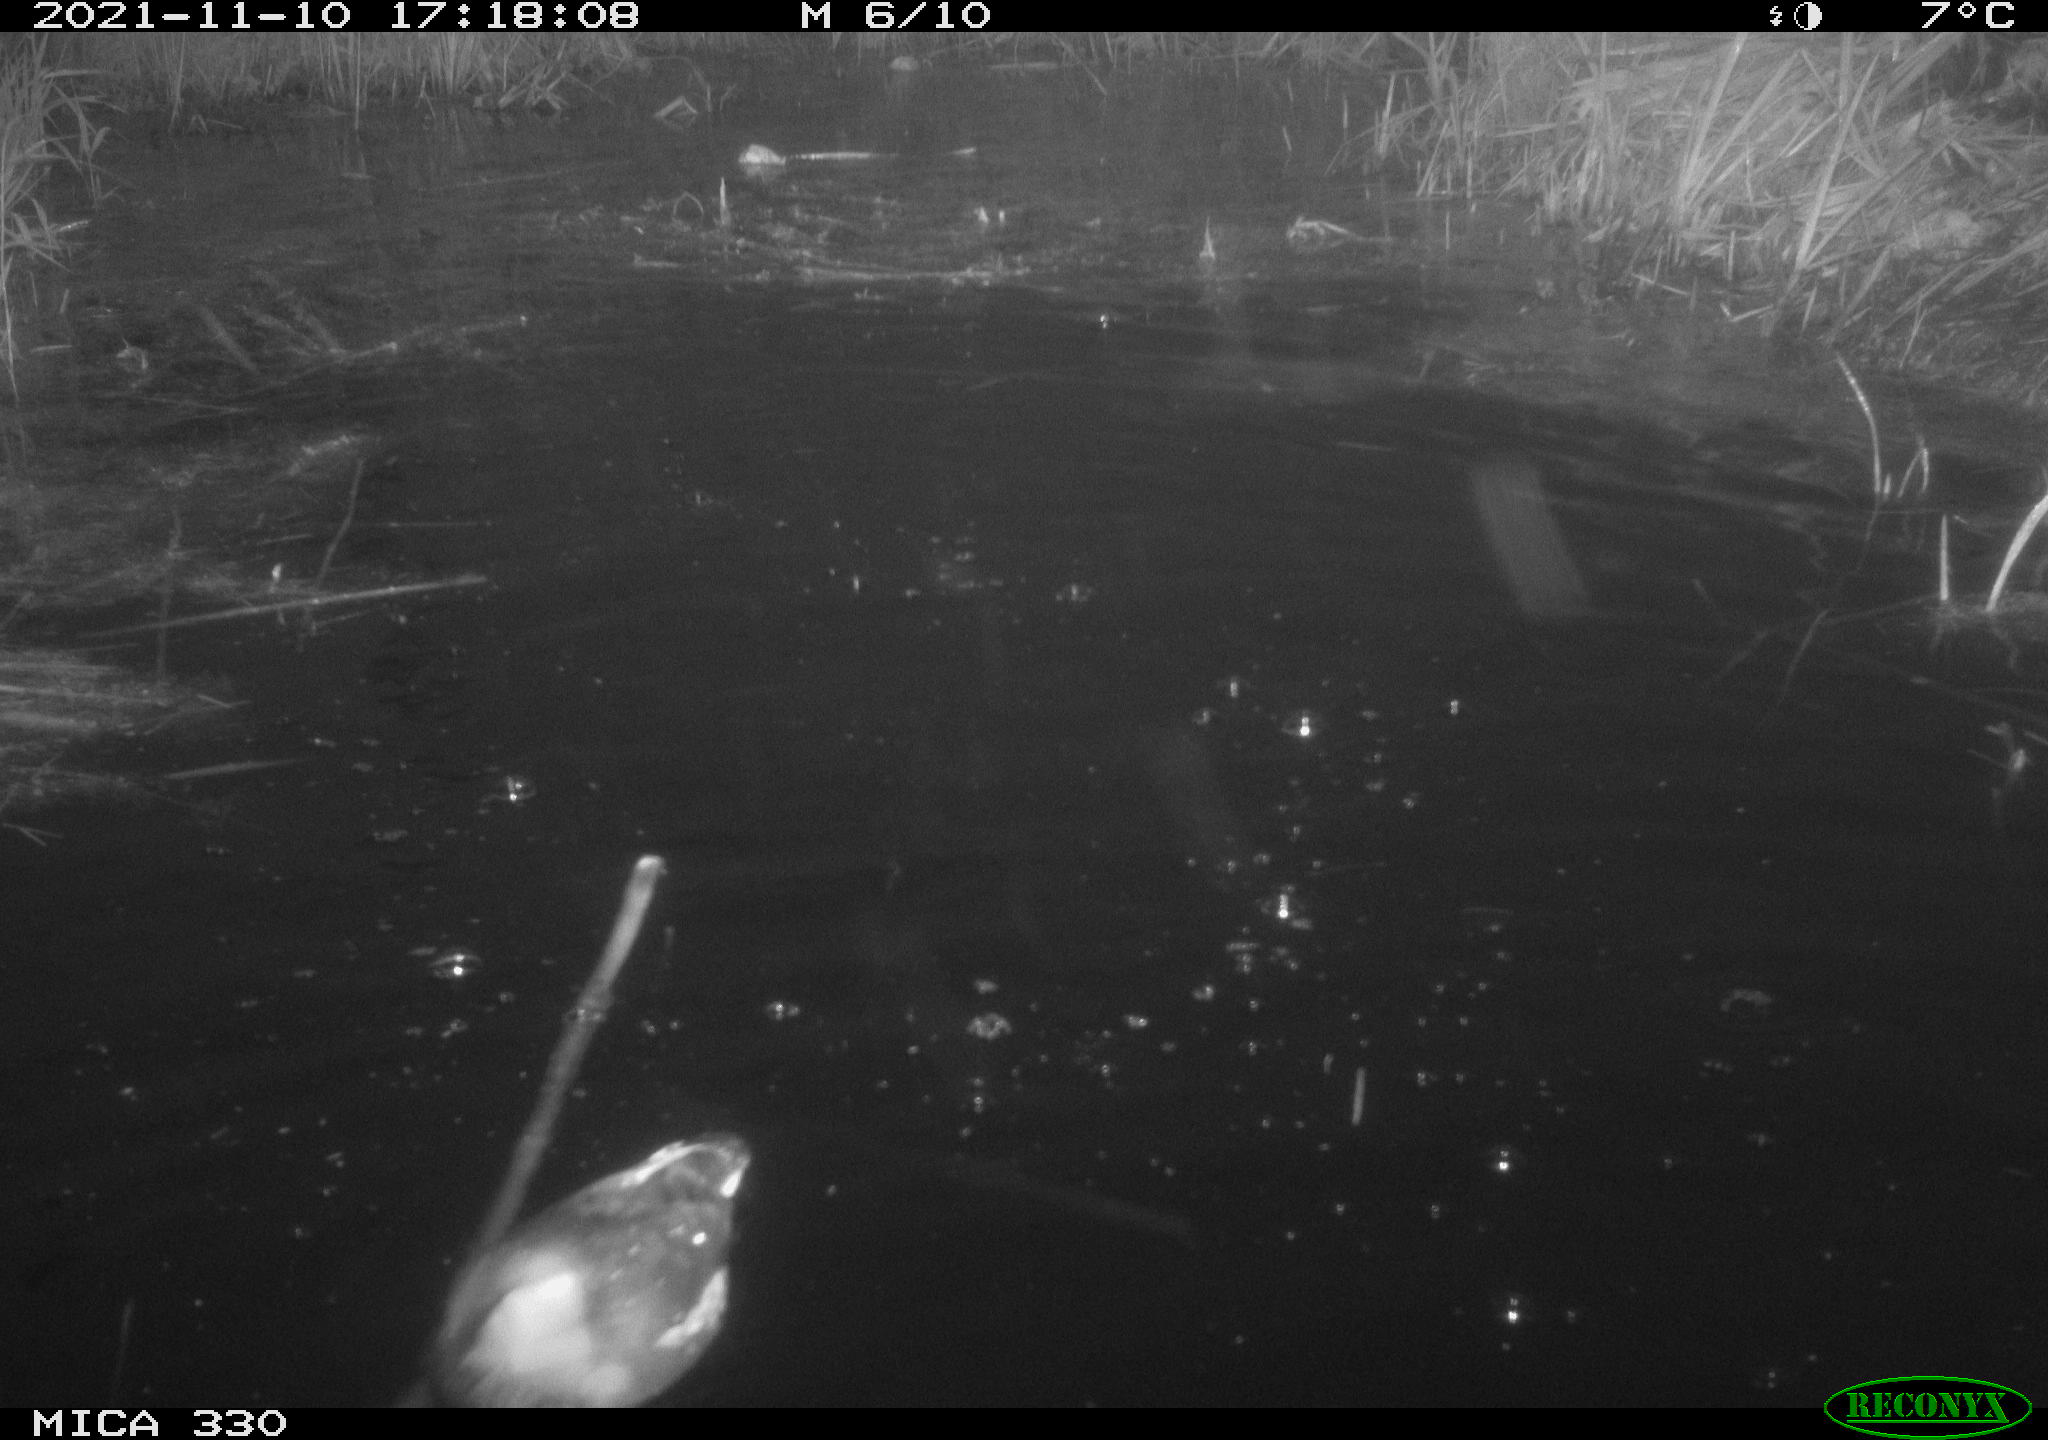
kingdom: Animalia
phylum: Chordata
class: Aves
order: Gruiformes
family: Rallidae
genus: Gallinula
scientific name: Gallinula chloropus
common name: Common moorhen
